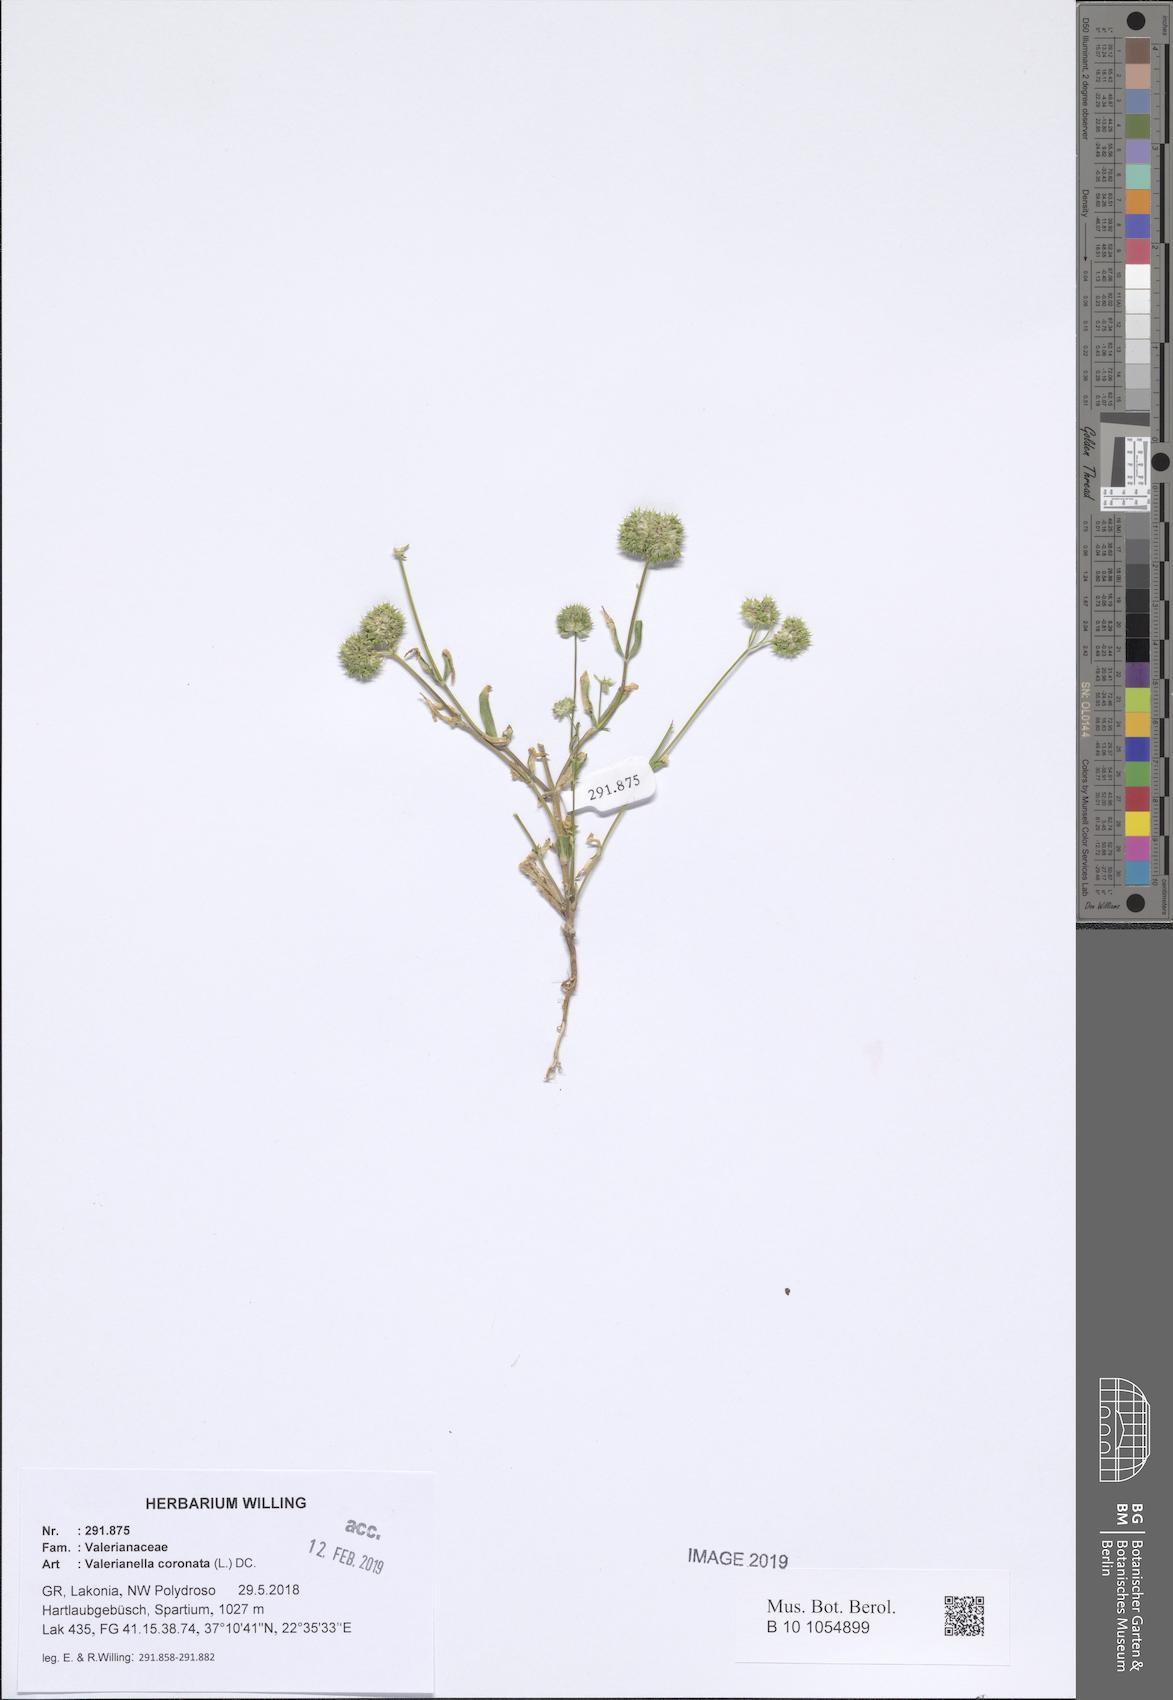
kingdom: Plantae
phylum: Tracheophyta
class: Magnoliopsida
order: Dipsacales
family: Caprifoliaceae
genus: Valerianella
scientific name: Valerianella coronata
